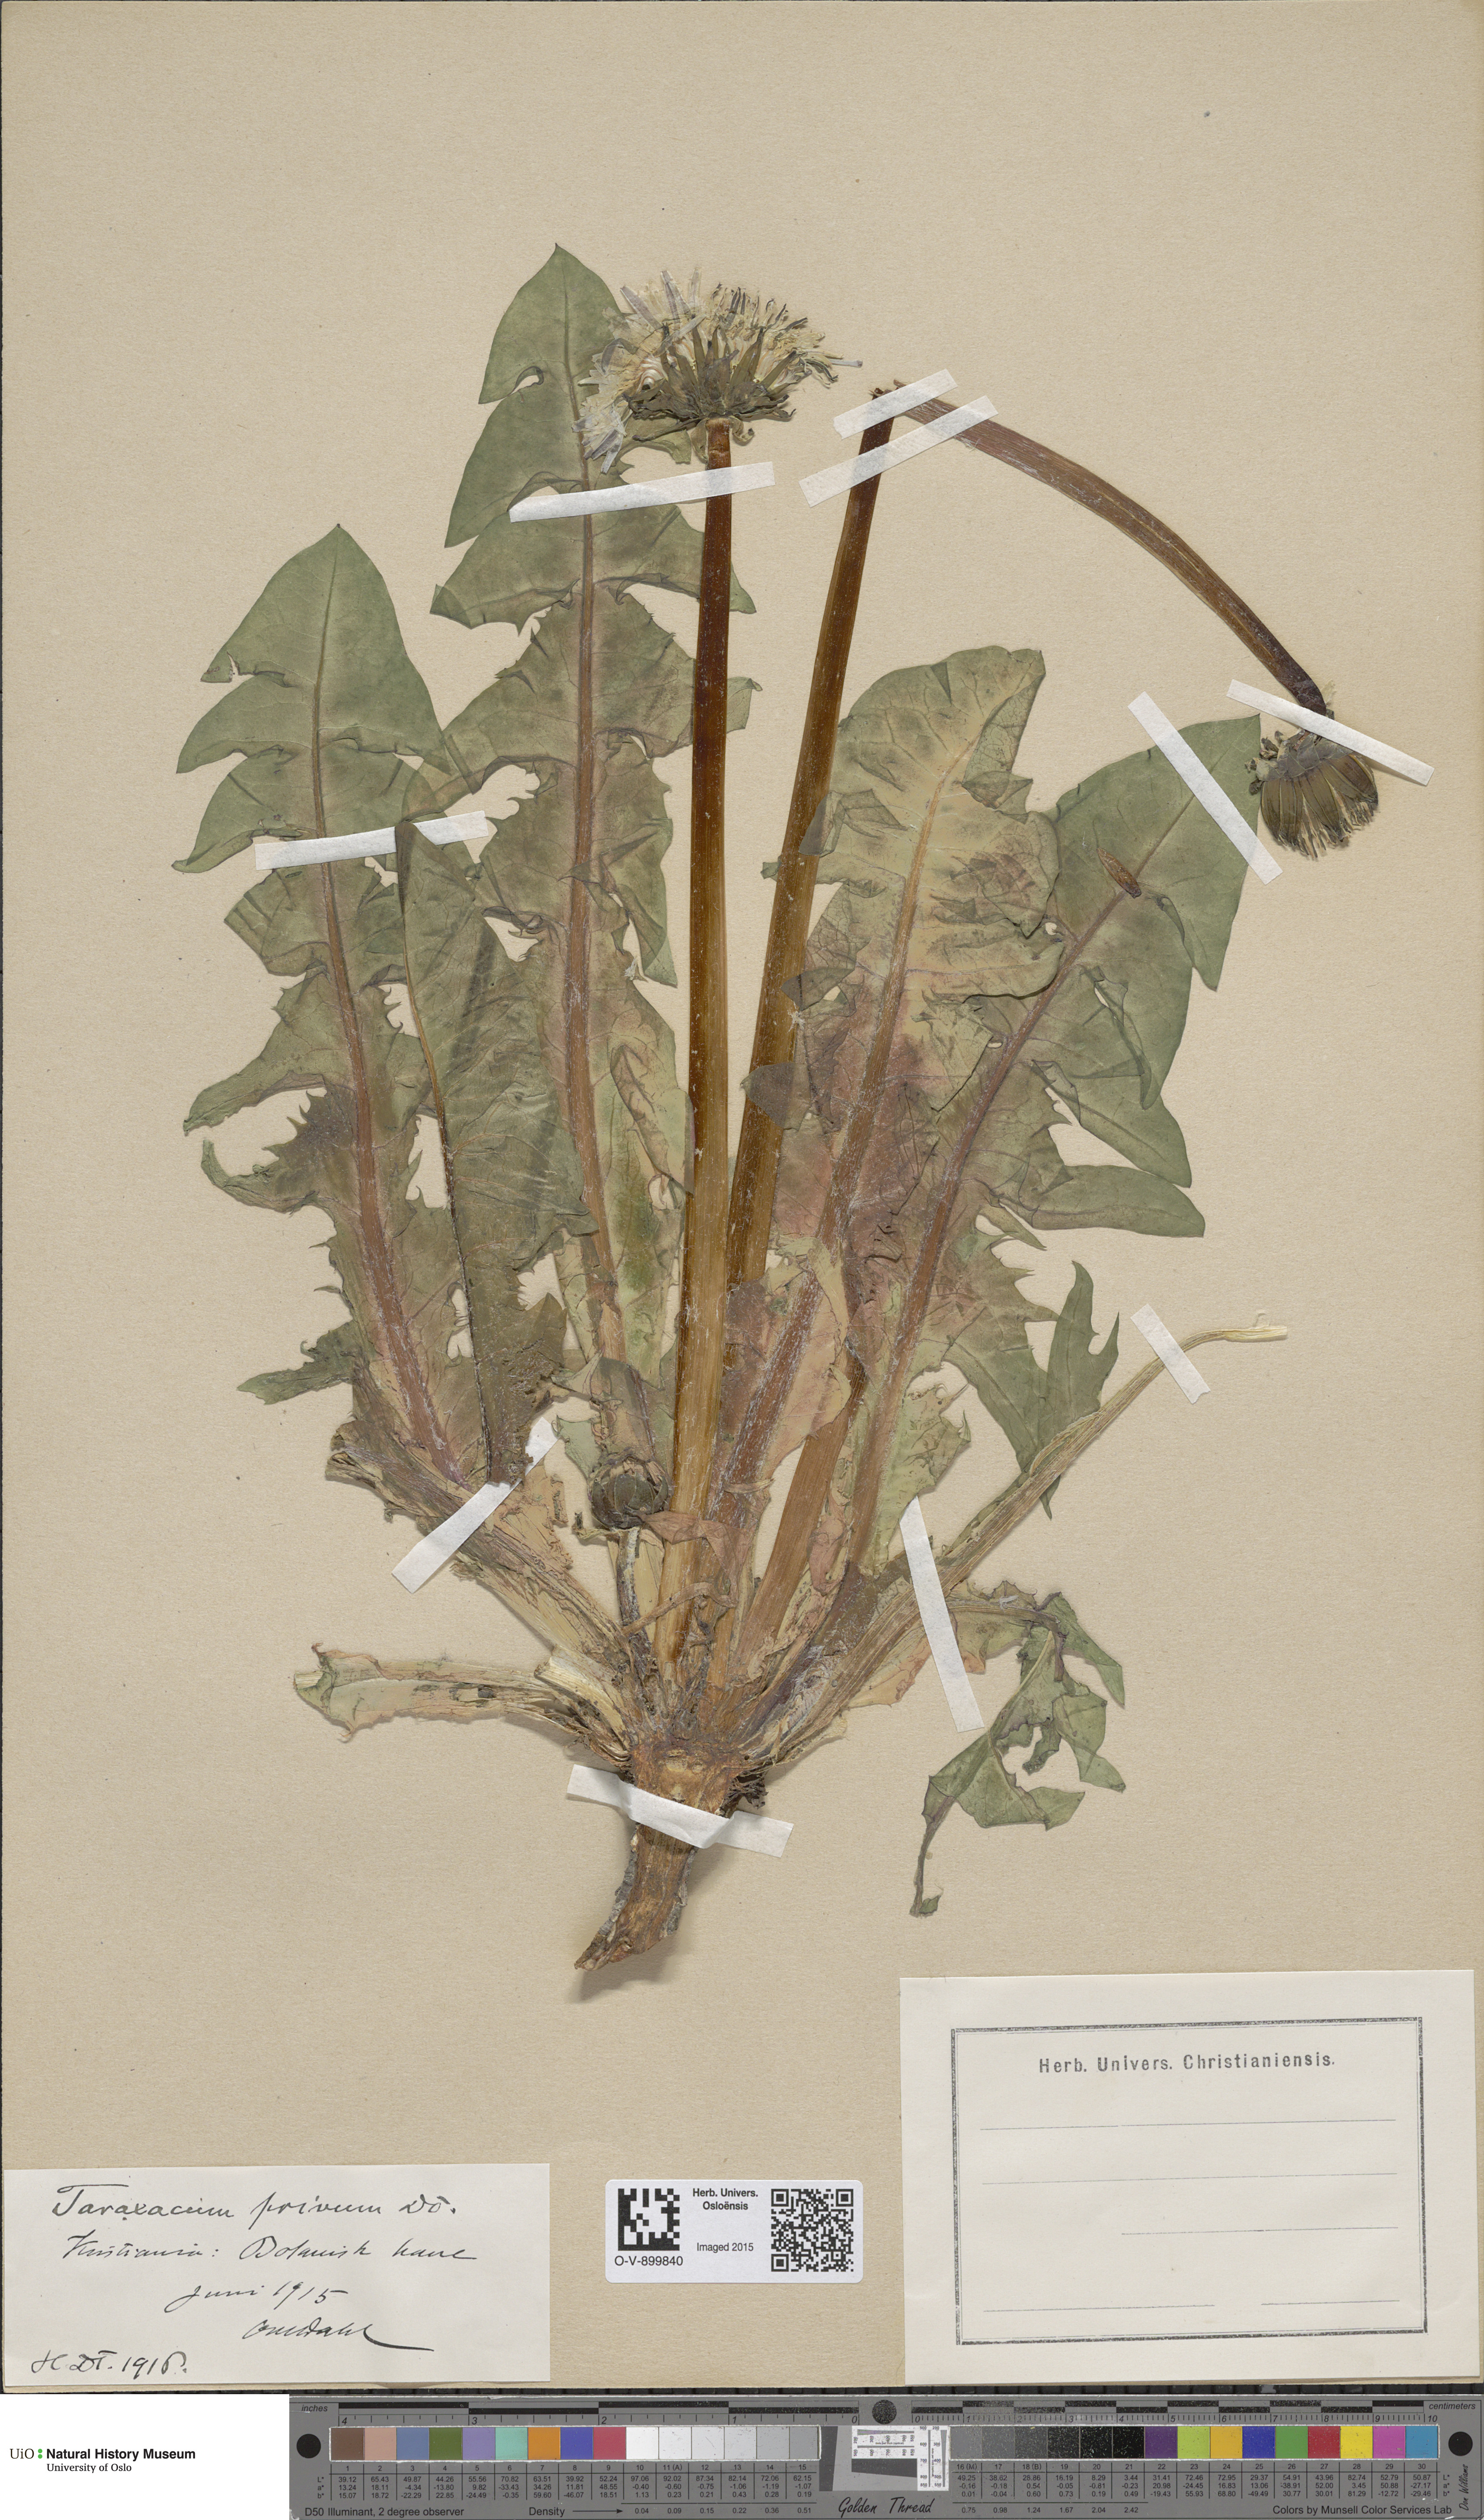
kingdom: Plantae
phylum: Tracheophyta
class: Magnoliopsida
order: Asterales
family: Asteraceae
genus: Taraxacum
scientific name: Taraxacum privum
